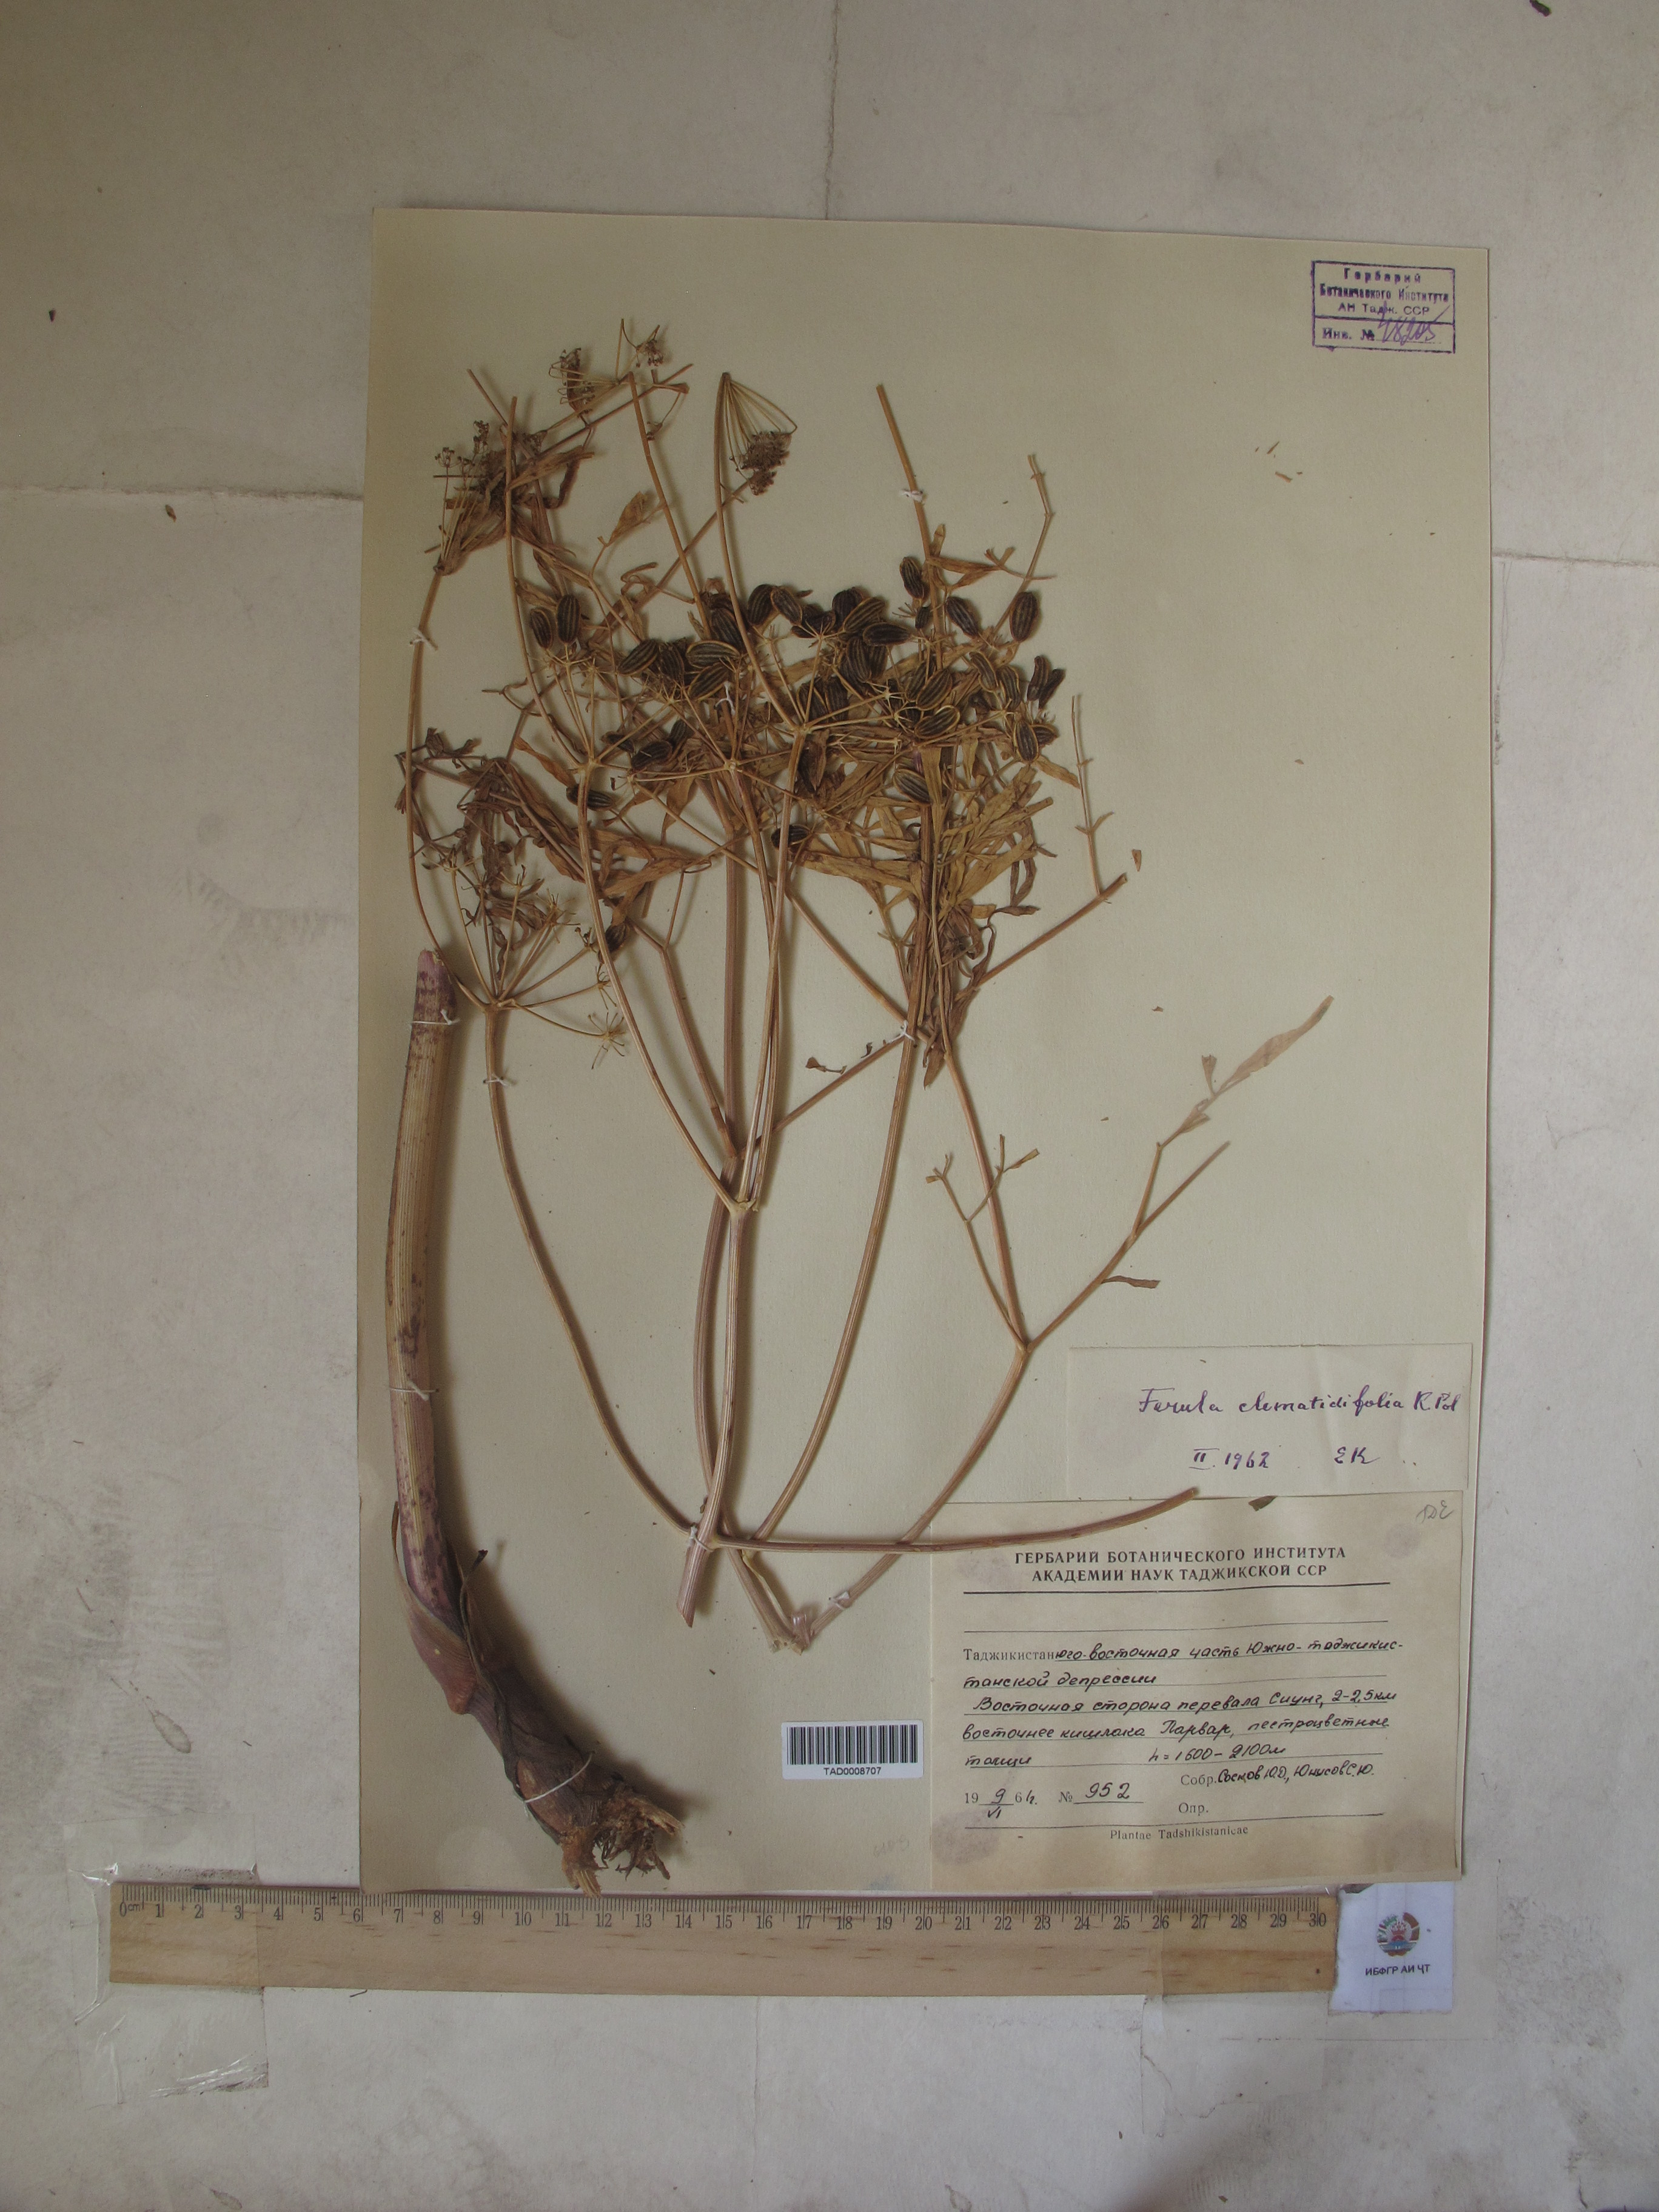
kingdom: Plantae
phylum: Tracheophyta
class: Magnoliopsida
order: Apiales
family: Apiaceae
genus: Ferula
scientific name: Ferula clematidifolia
